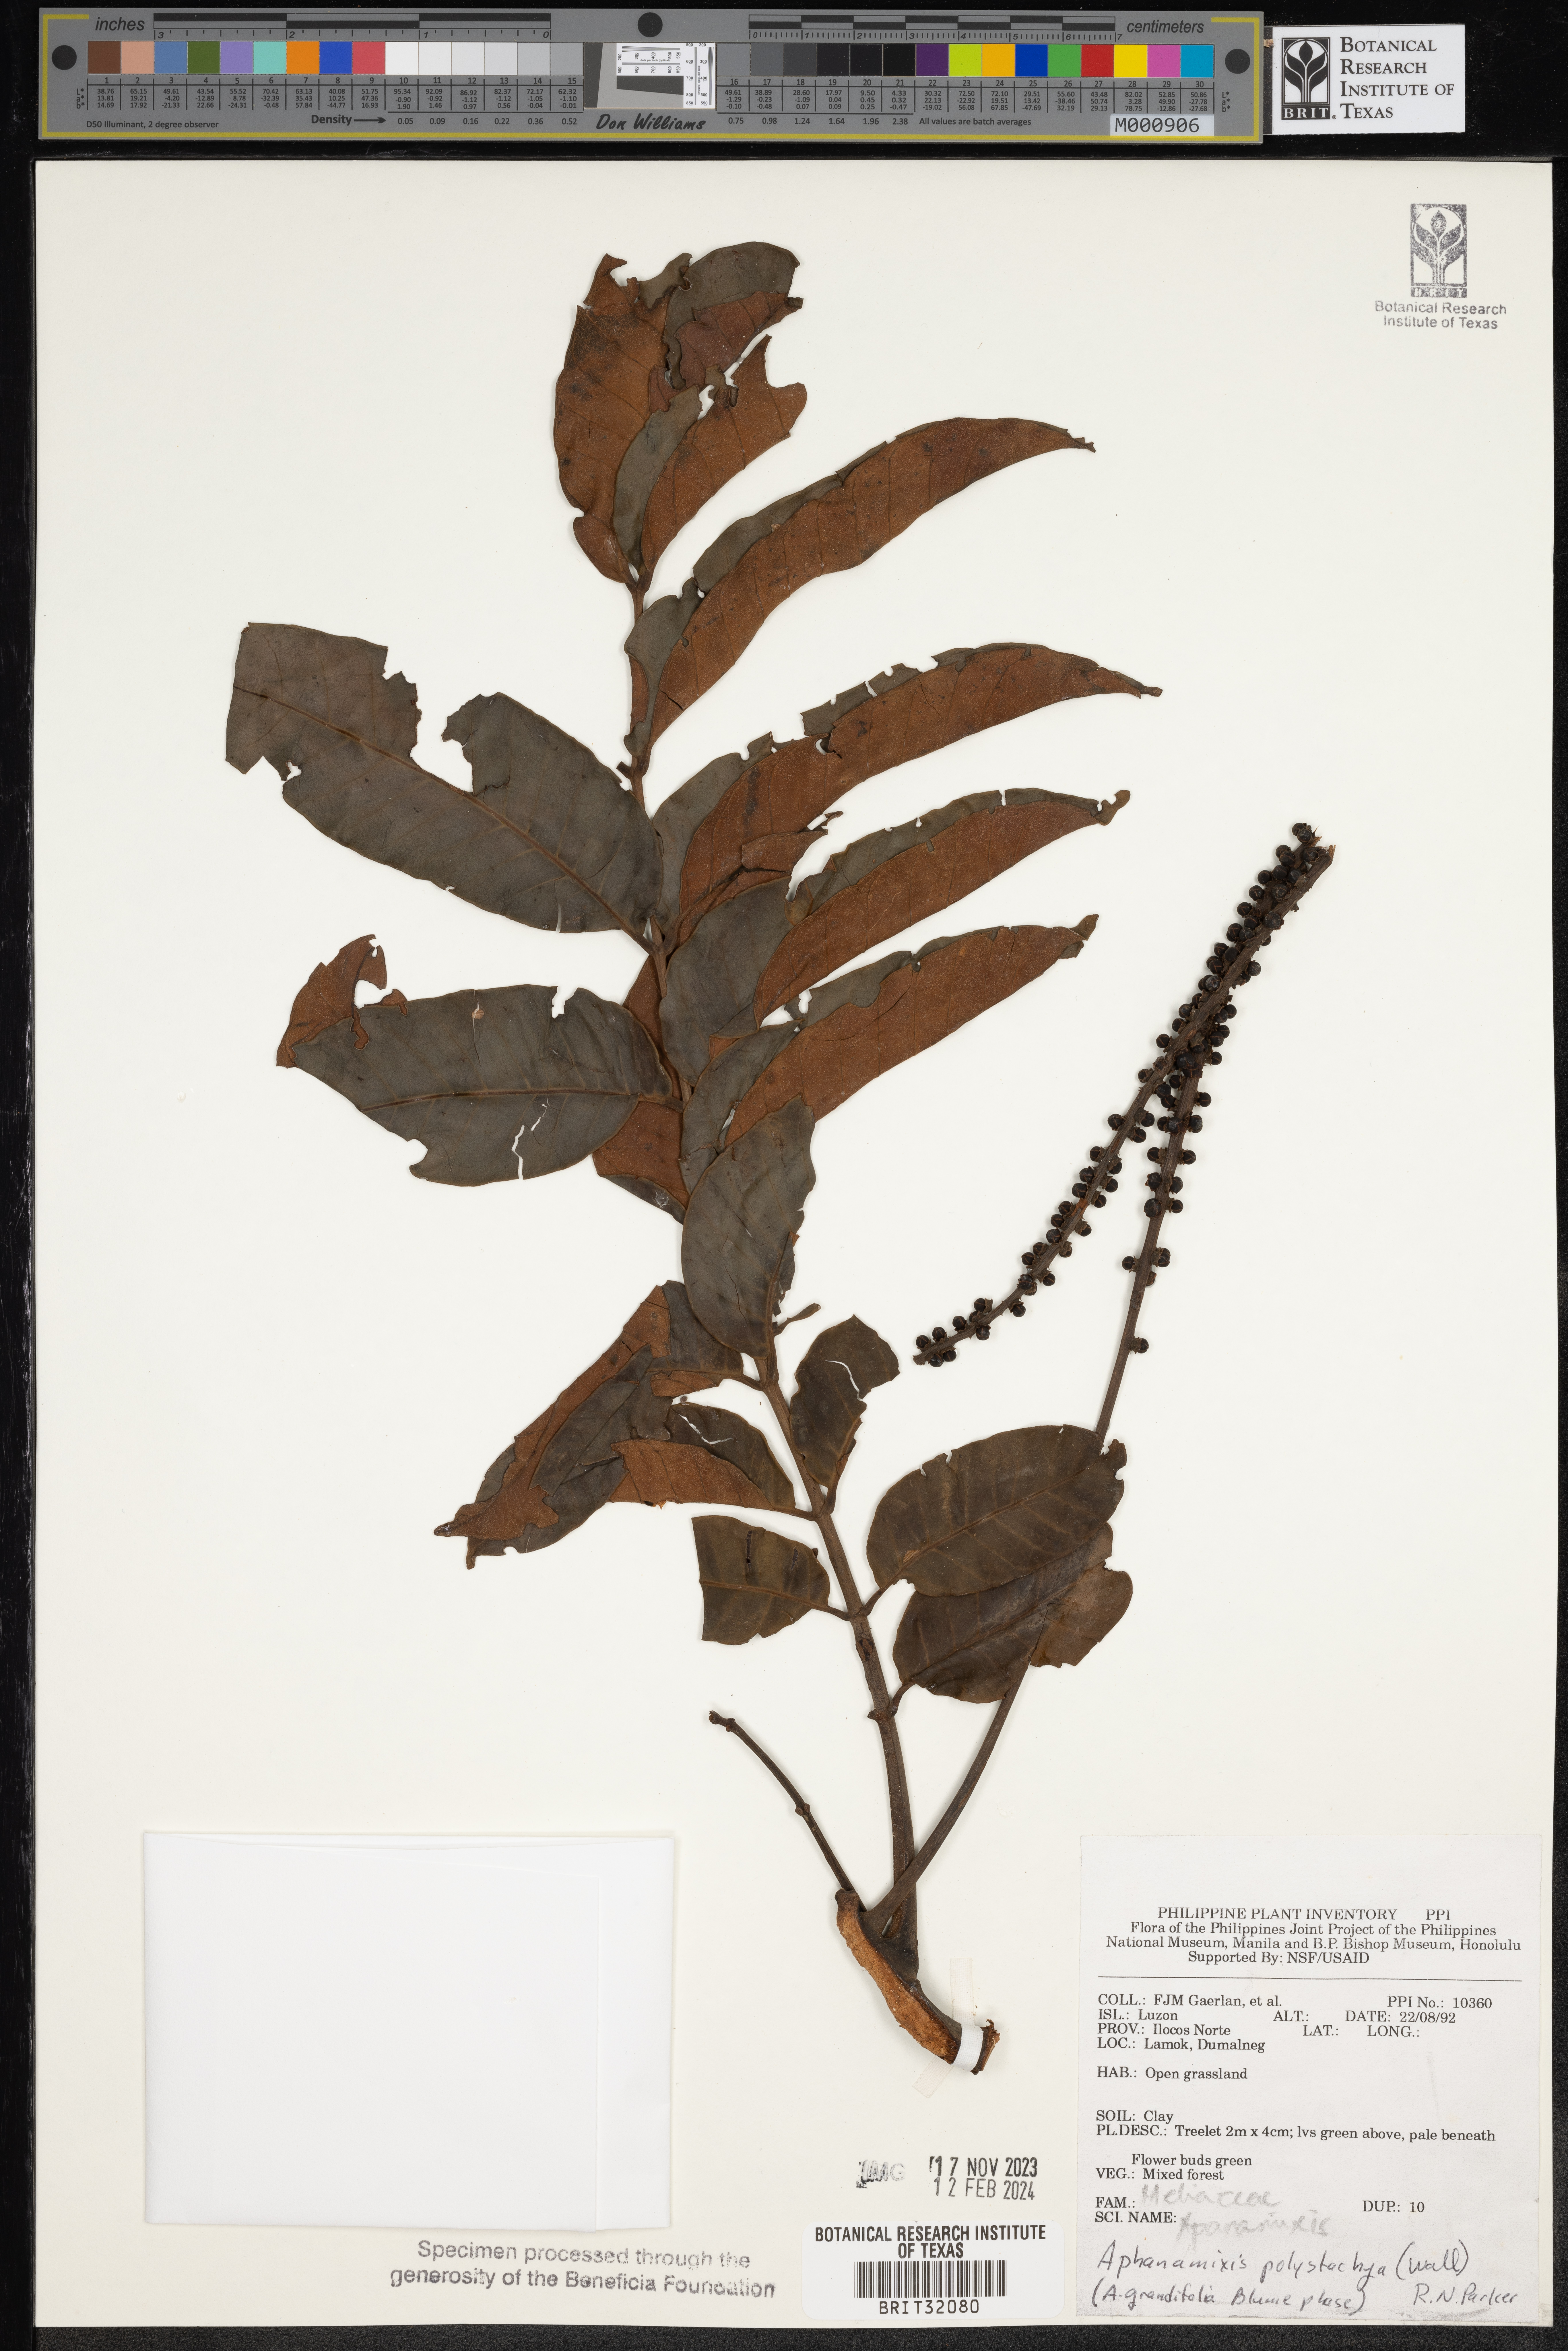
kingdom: Plantae
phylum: Tracheophyta
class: Magnoliopsida
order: Sapindales
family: Meliaceae
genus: Aphanamixis
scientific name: Aphanamixis polystachya
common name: Pithraj tree
